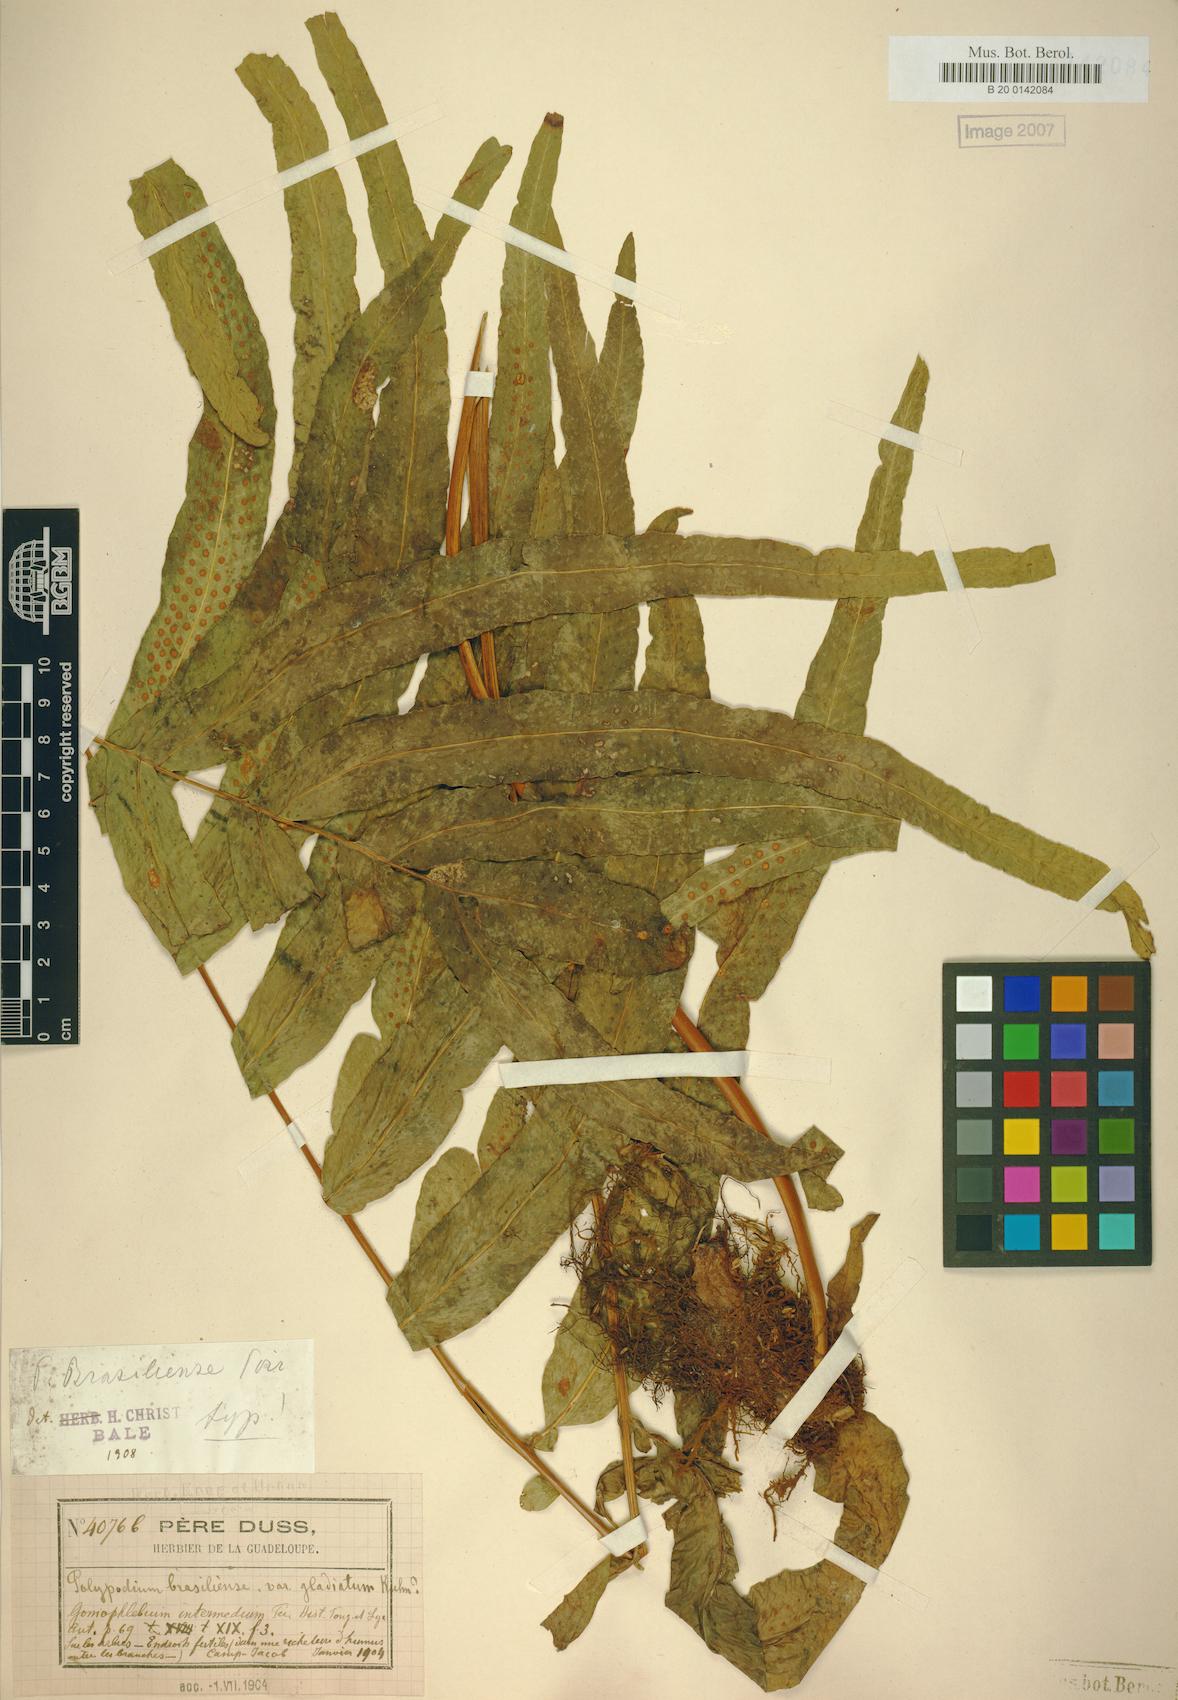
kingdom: Plantae
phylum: Tracheophyta
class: Polypodiopsida
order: Polypodiales
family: Polypodiaceae
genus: Serpocaulon
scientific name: Serpocaulon triseriale
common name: Angle-vein fern
